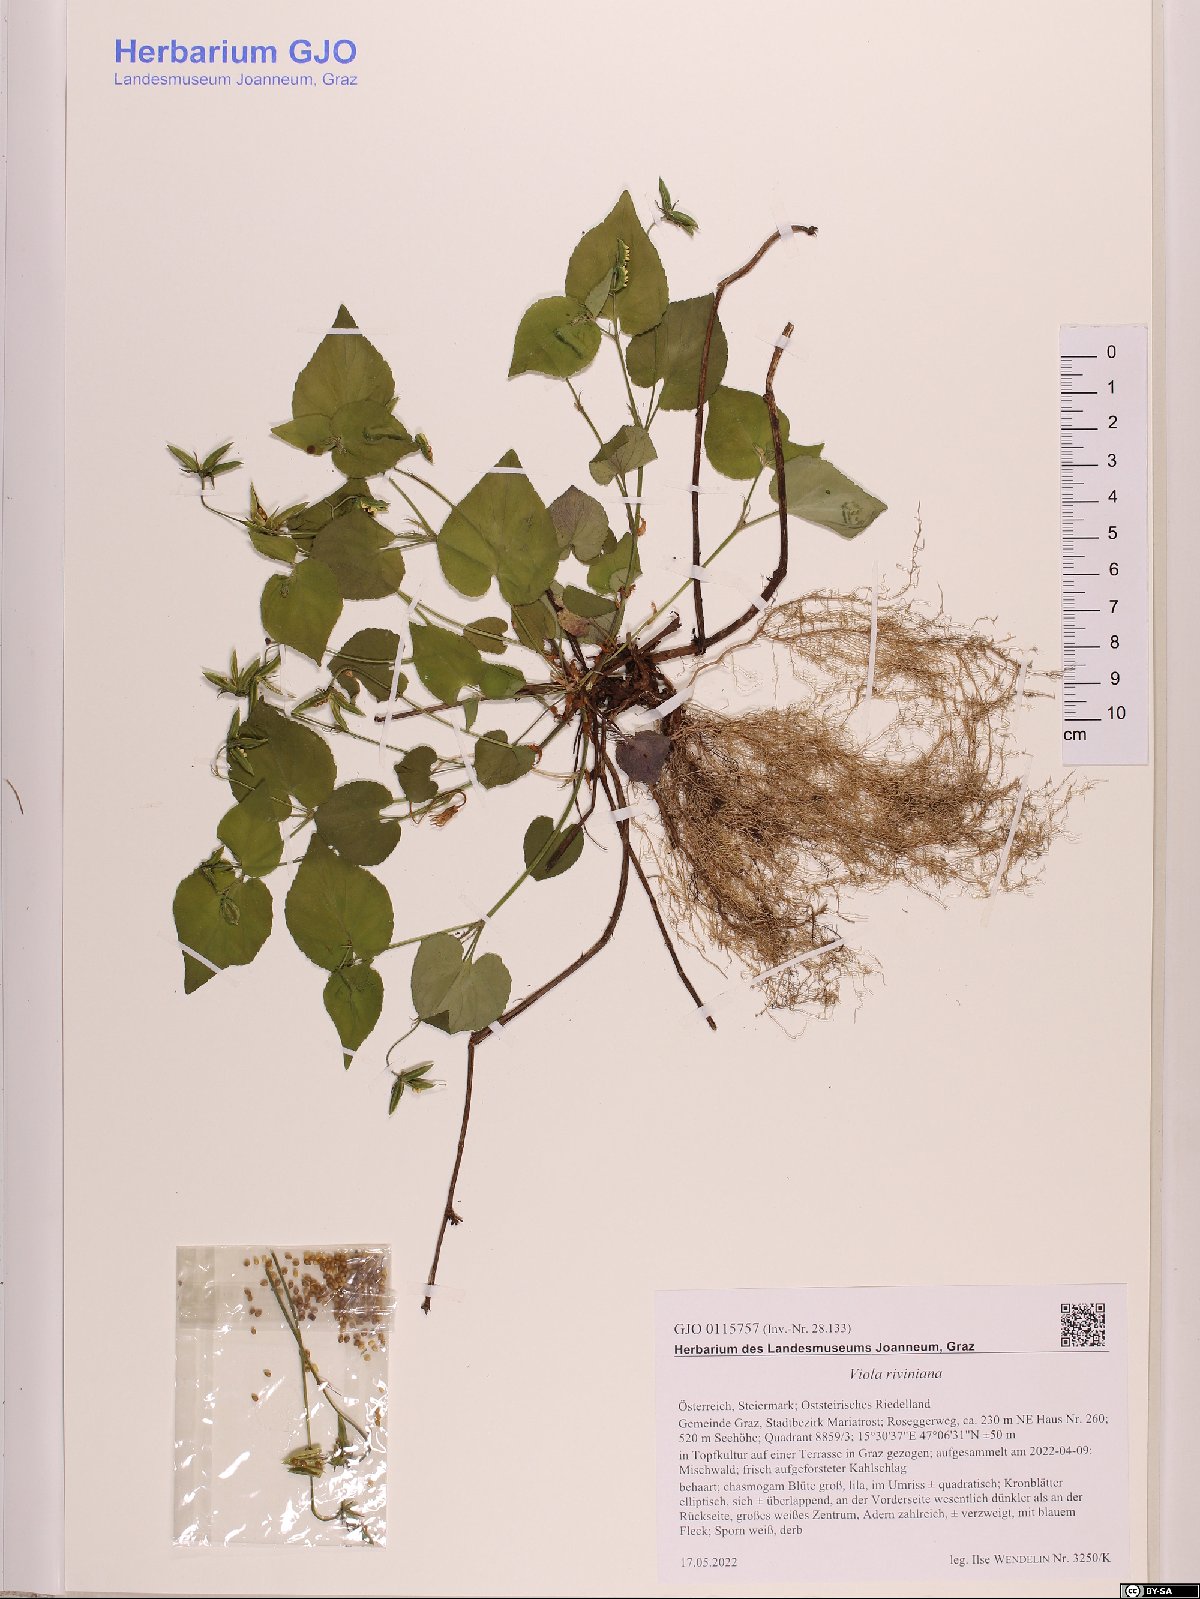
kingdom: Plantae
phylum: Tracheophyta
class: Magnoliopsida
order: Malpighiales
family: Violaceae
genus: Viola
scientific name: Viola riviniana
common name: Common dog-violet
